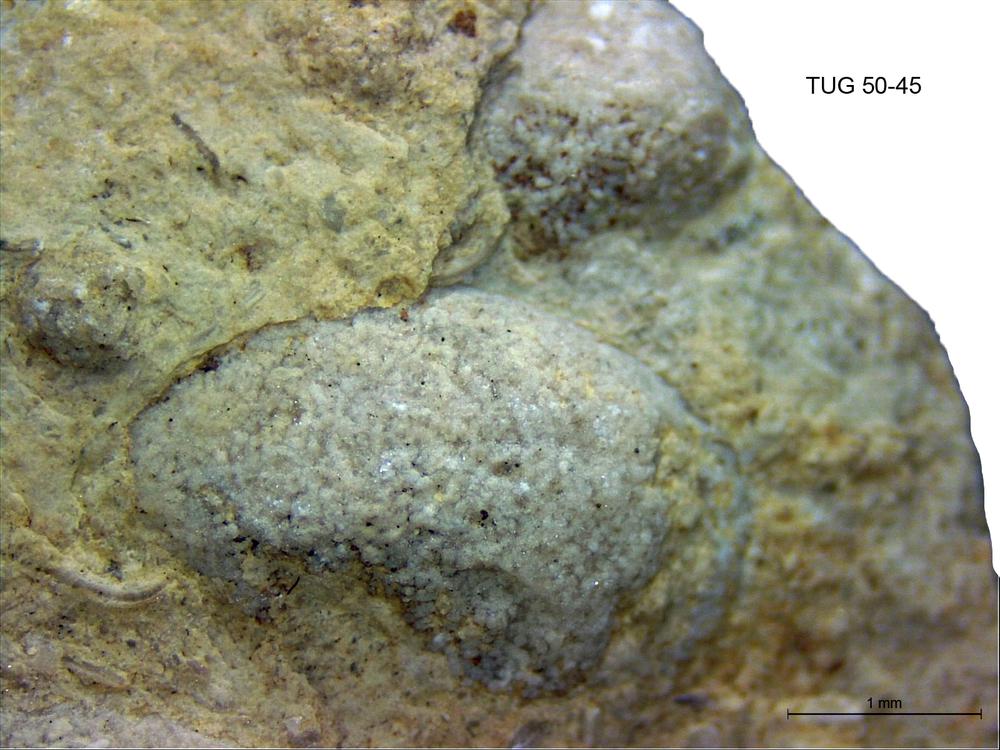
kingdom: Animalia
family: Coprulidae
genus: Coprulus
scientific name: Coprulus
